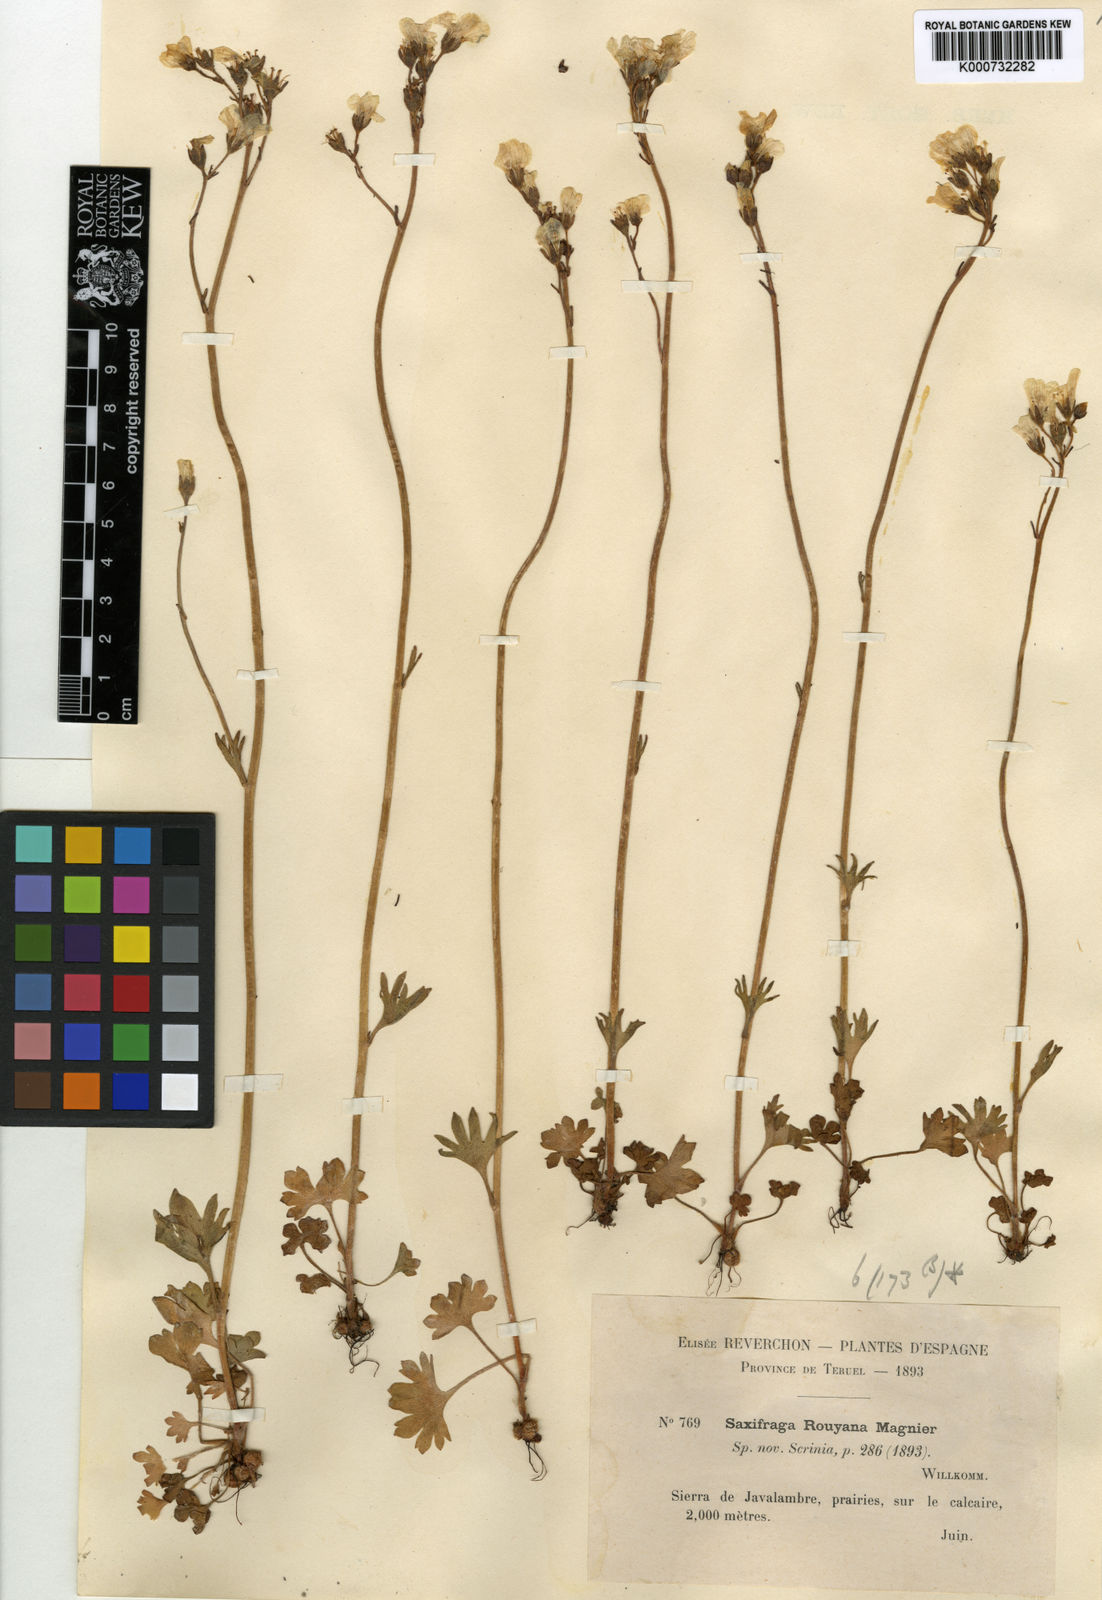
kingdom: Plantae
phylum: Tracheophyta
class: Magnoliopsida
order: Saxifragales
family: Saxifragaceae
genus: Saxifraga
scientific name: Saxifraga granulata
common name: Meadow saxifrage
